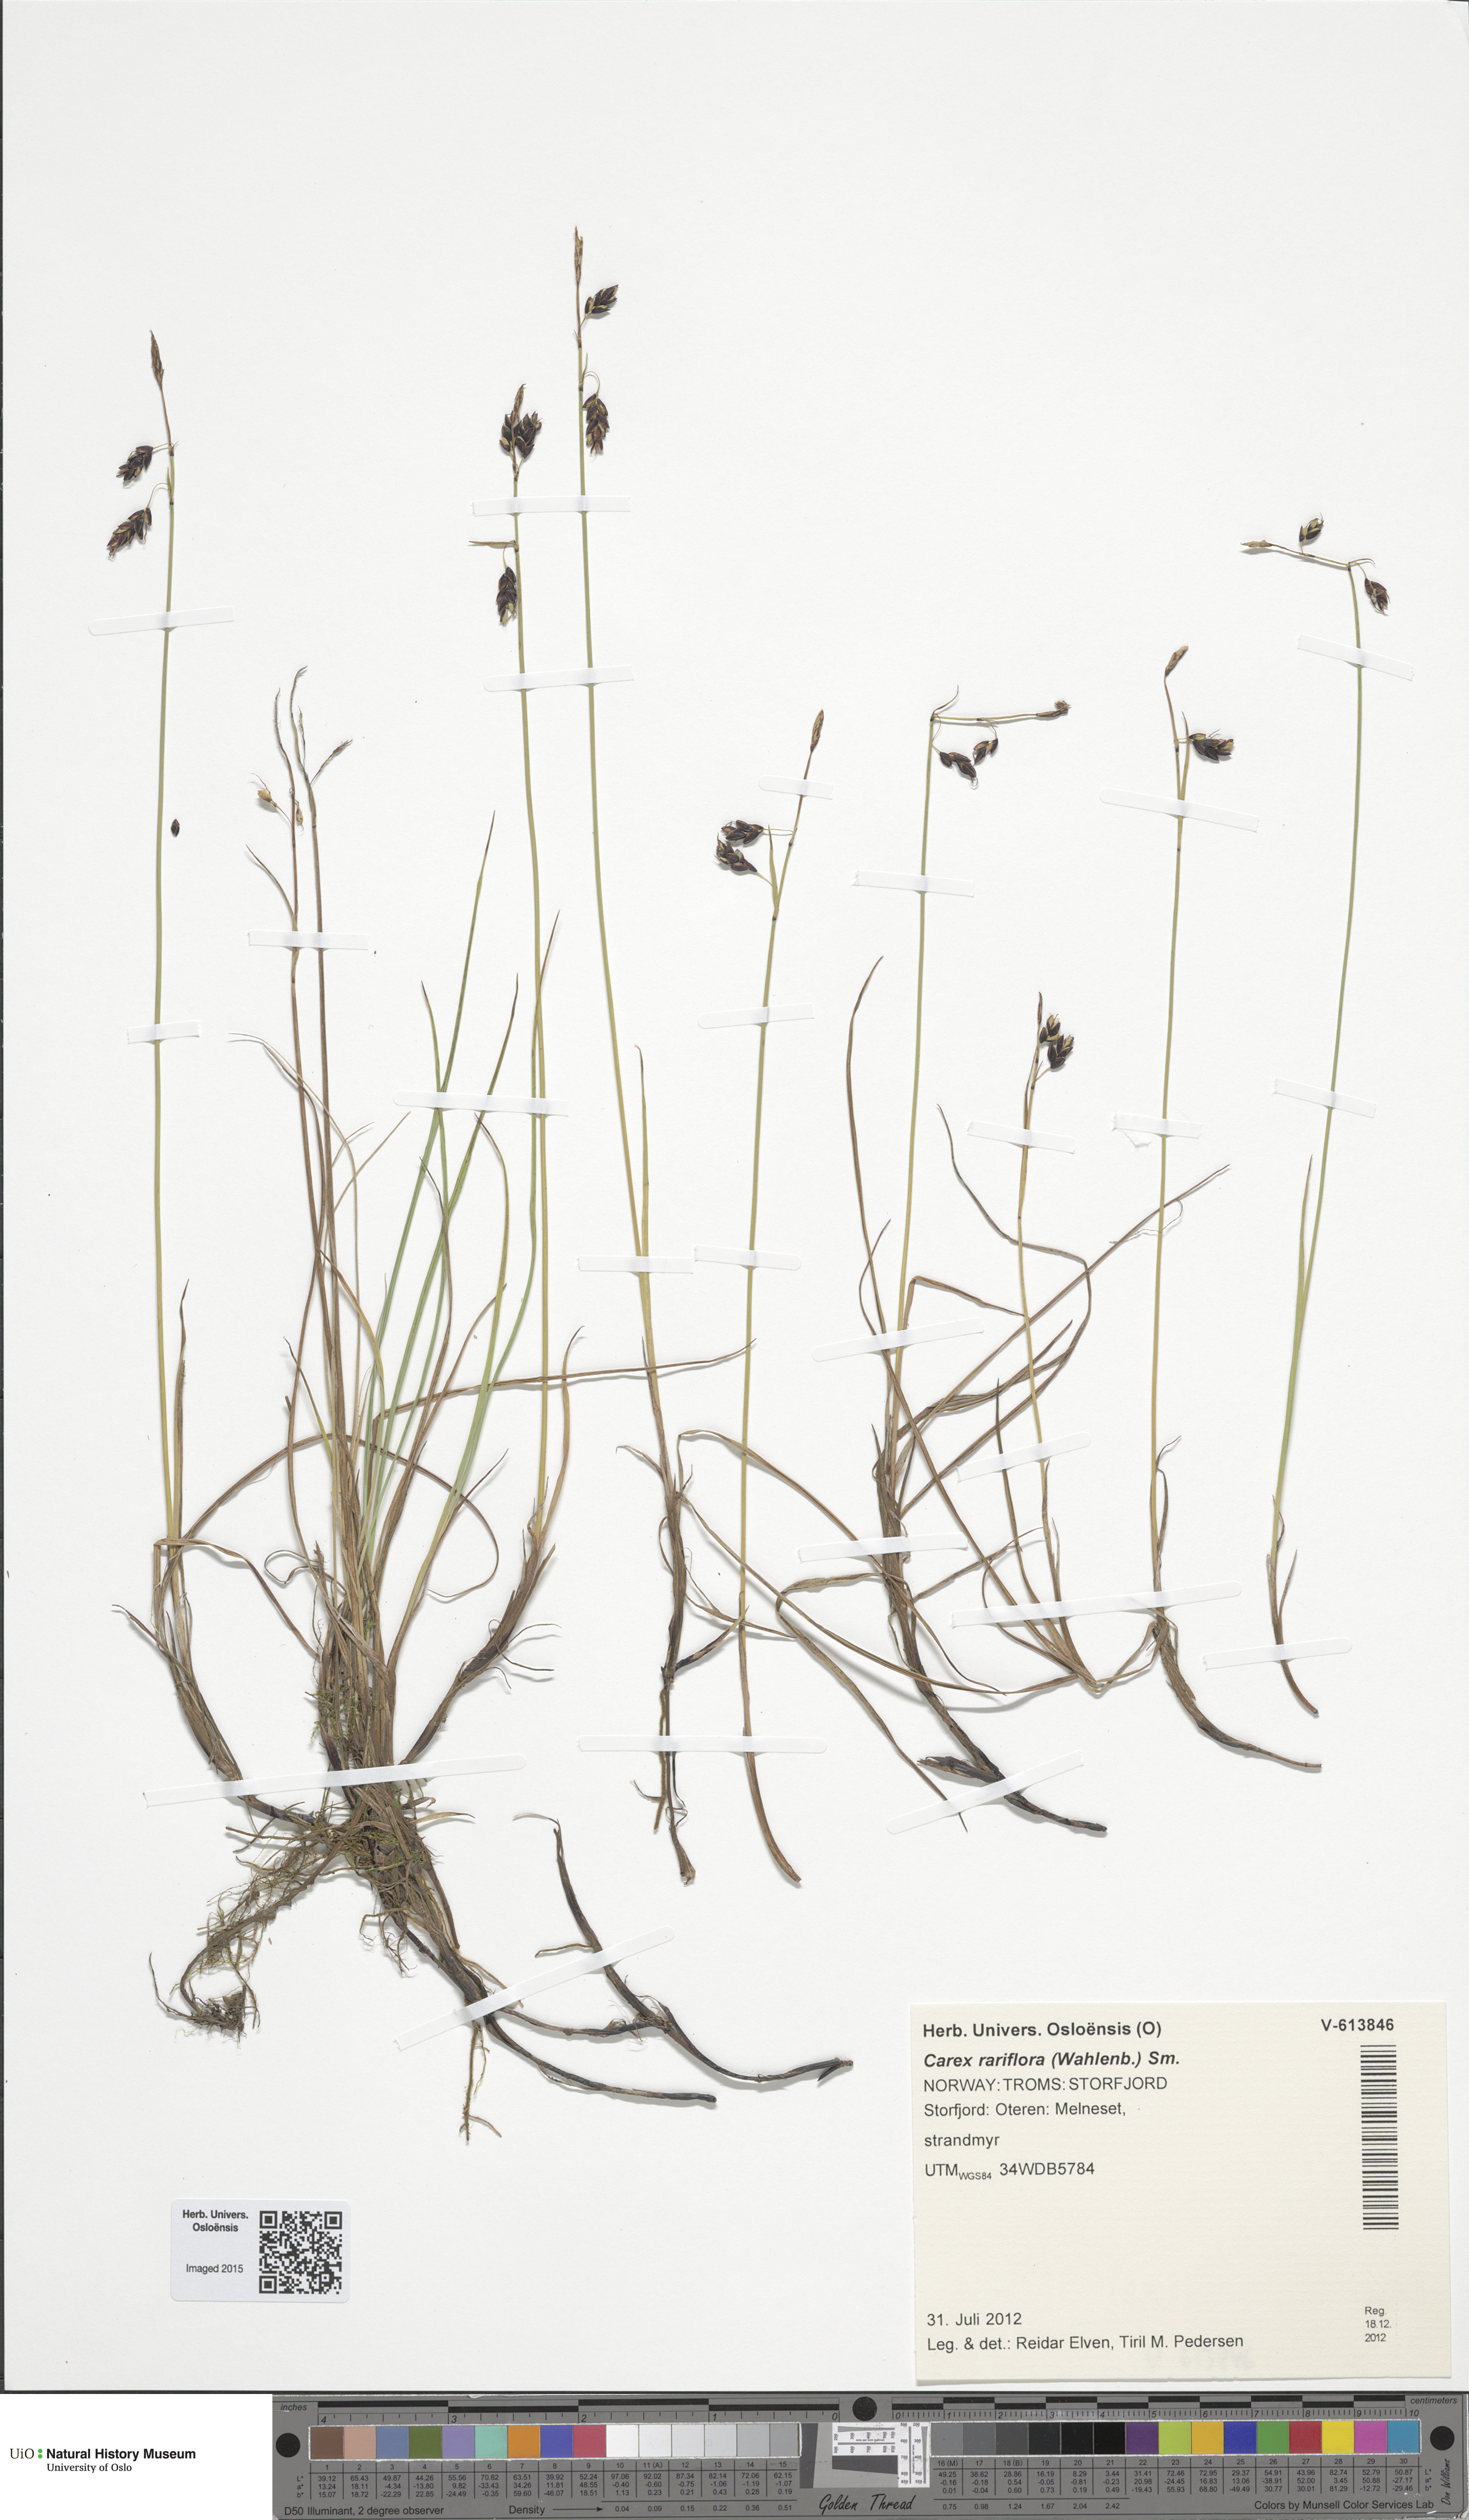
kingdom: Plantae
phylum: Tracheophyta
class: Liliopsida
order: Poales
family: Cyperaceae
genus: Carex
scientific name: Carex rariflora
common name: Loose-flowered alpine sedge
